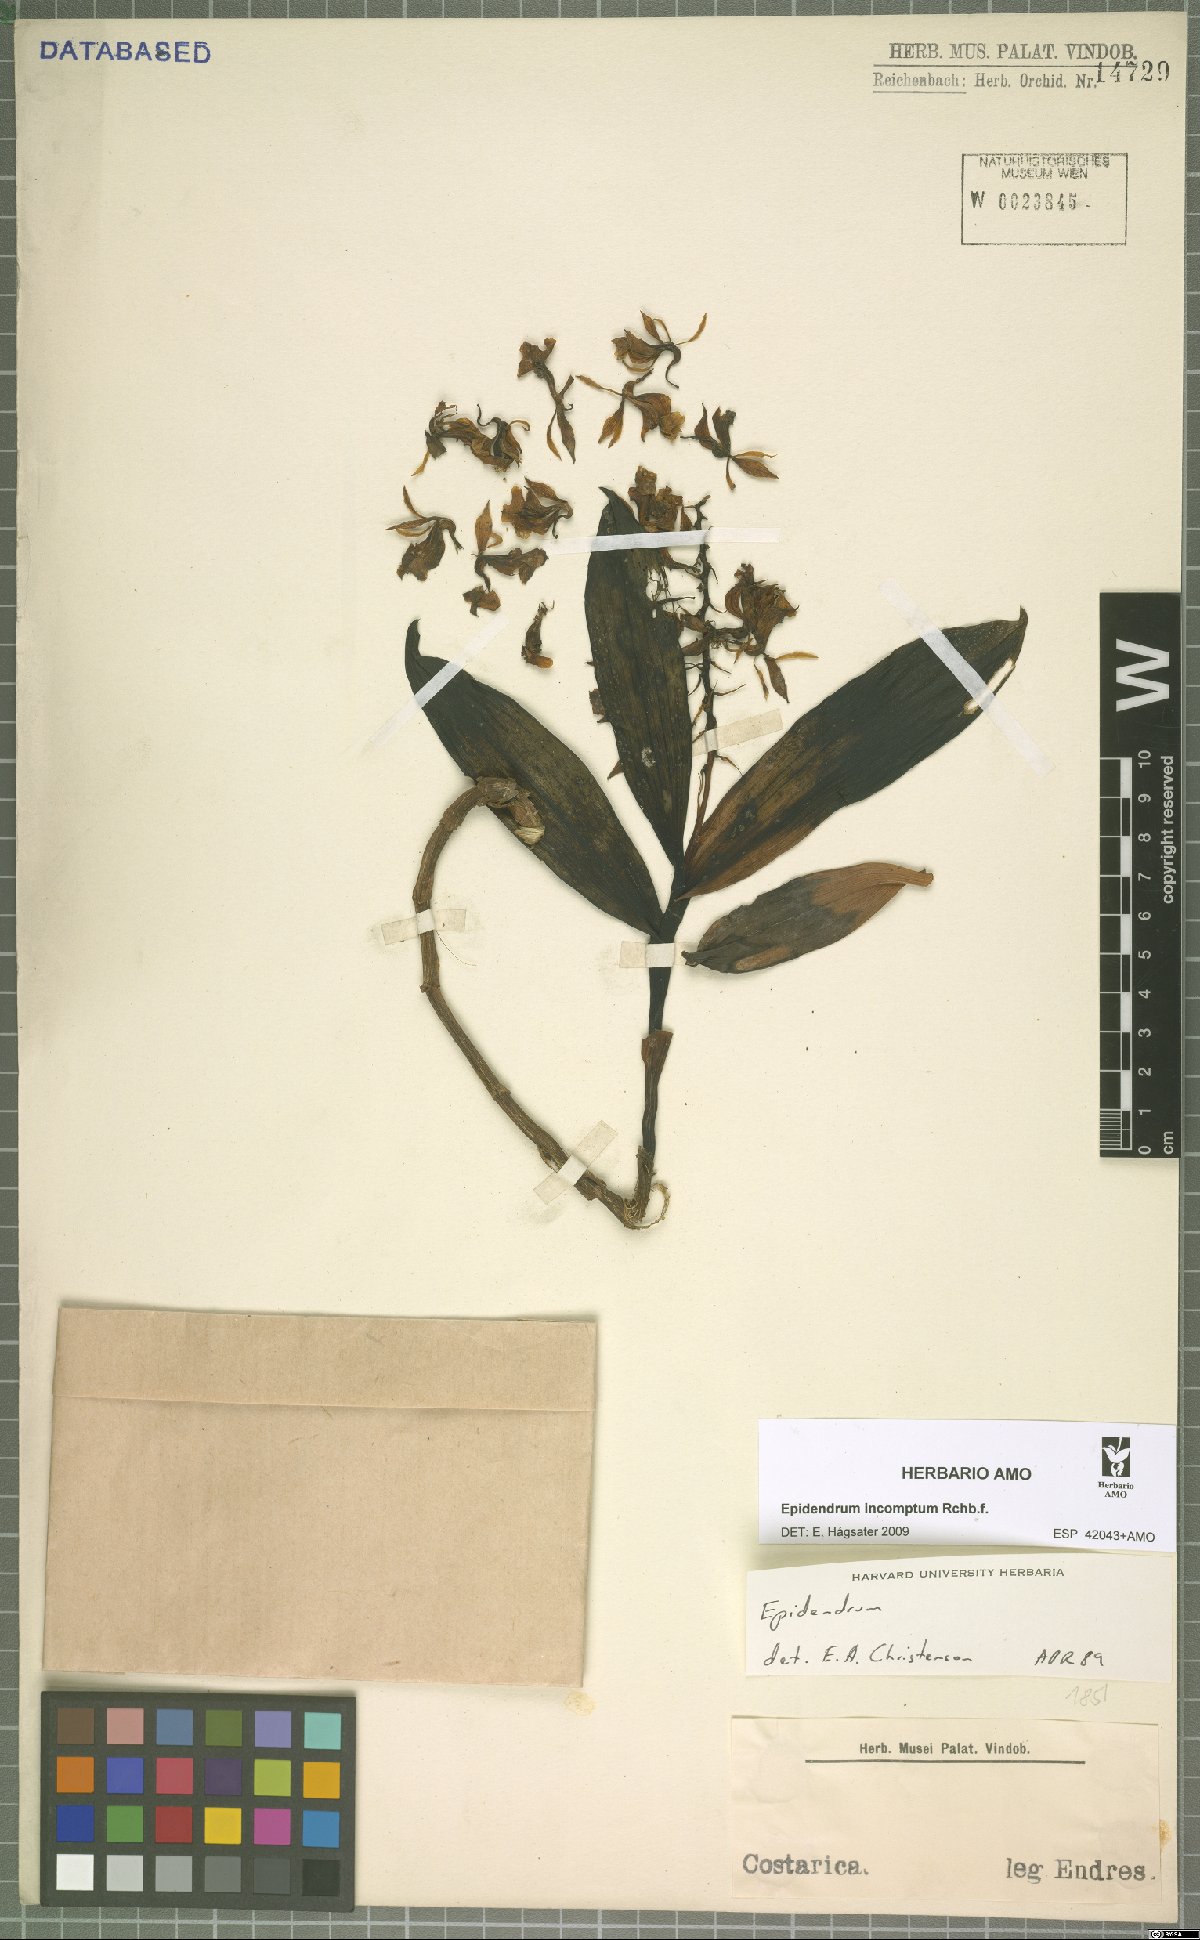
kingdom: Plantae
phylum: Tracheophyta
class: Liliopsida
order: Asparagales
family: Orchidaceae
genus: Epidendrum
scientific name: Epidendrum incomptum
